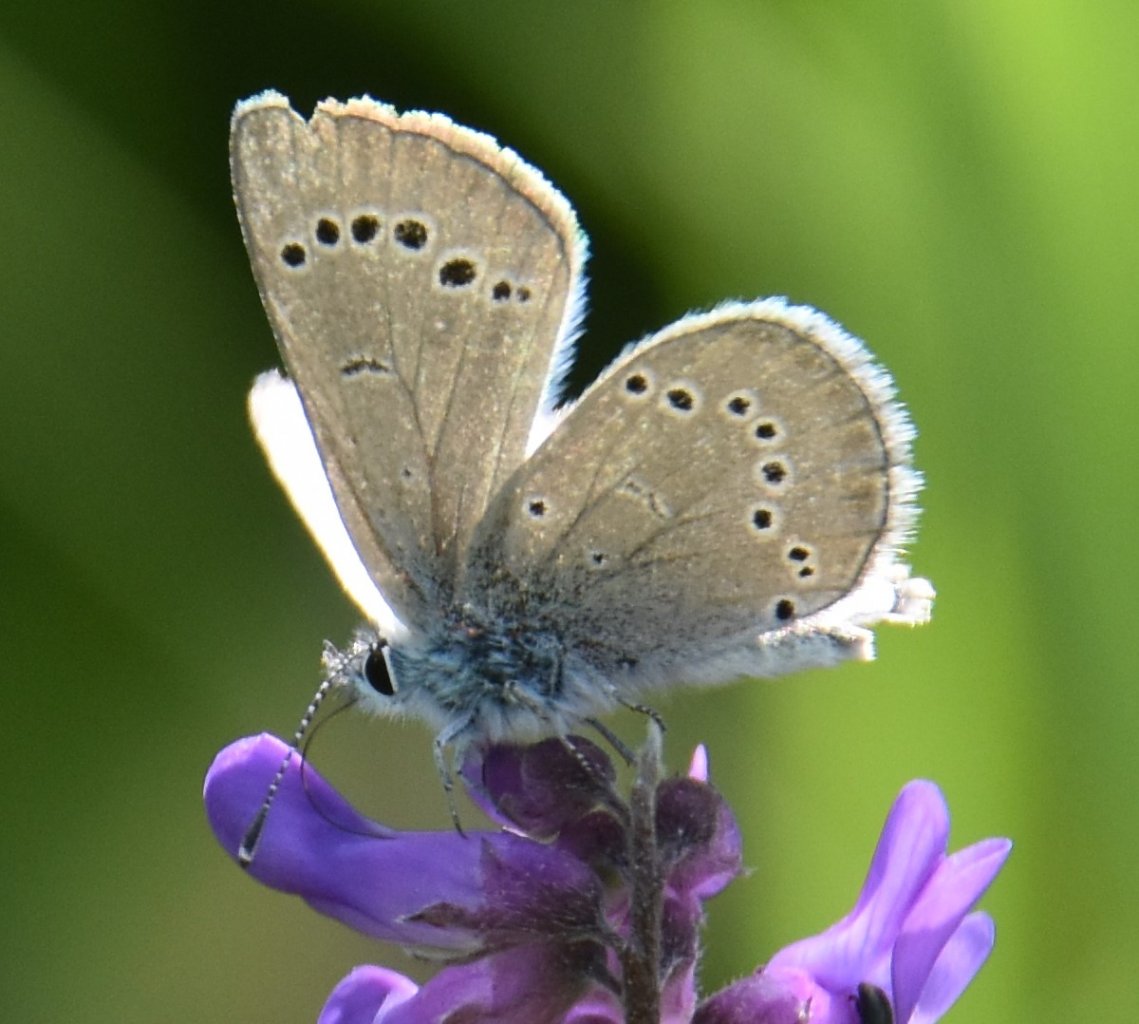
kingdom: Animalia
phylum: Arthropoda
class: Insecta
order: Lepidoptera
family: Lycaenidae
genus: Glaucopsyche
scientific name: Glaucopsyche lygdamus
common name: Silvery Blue
